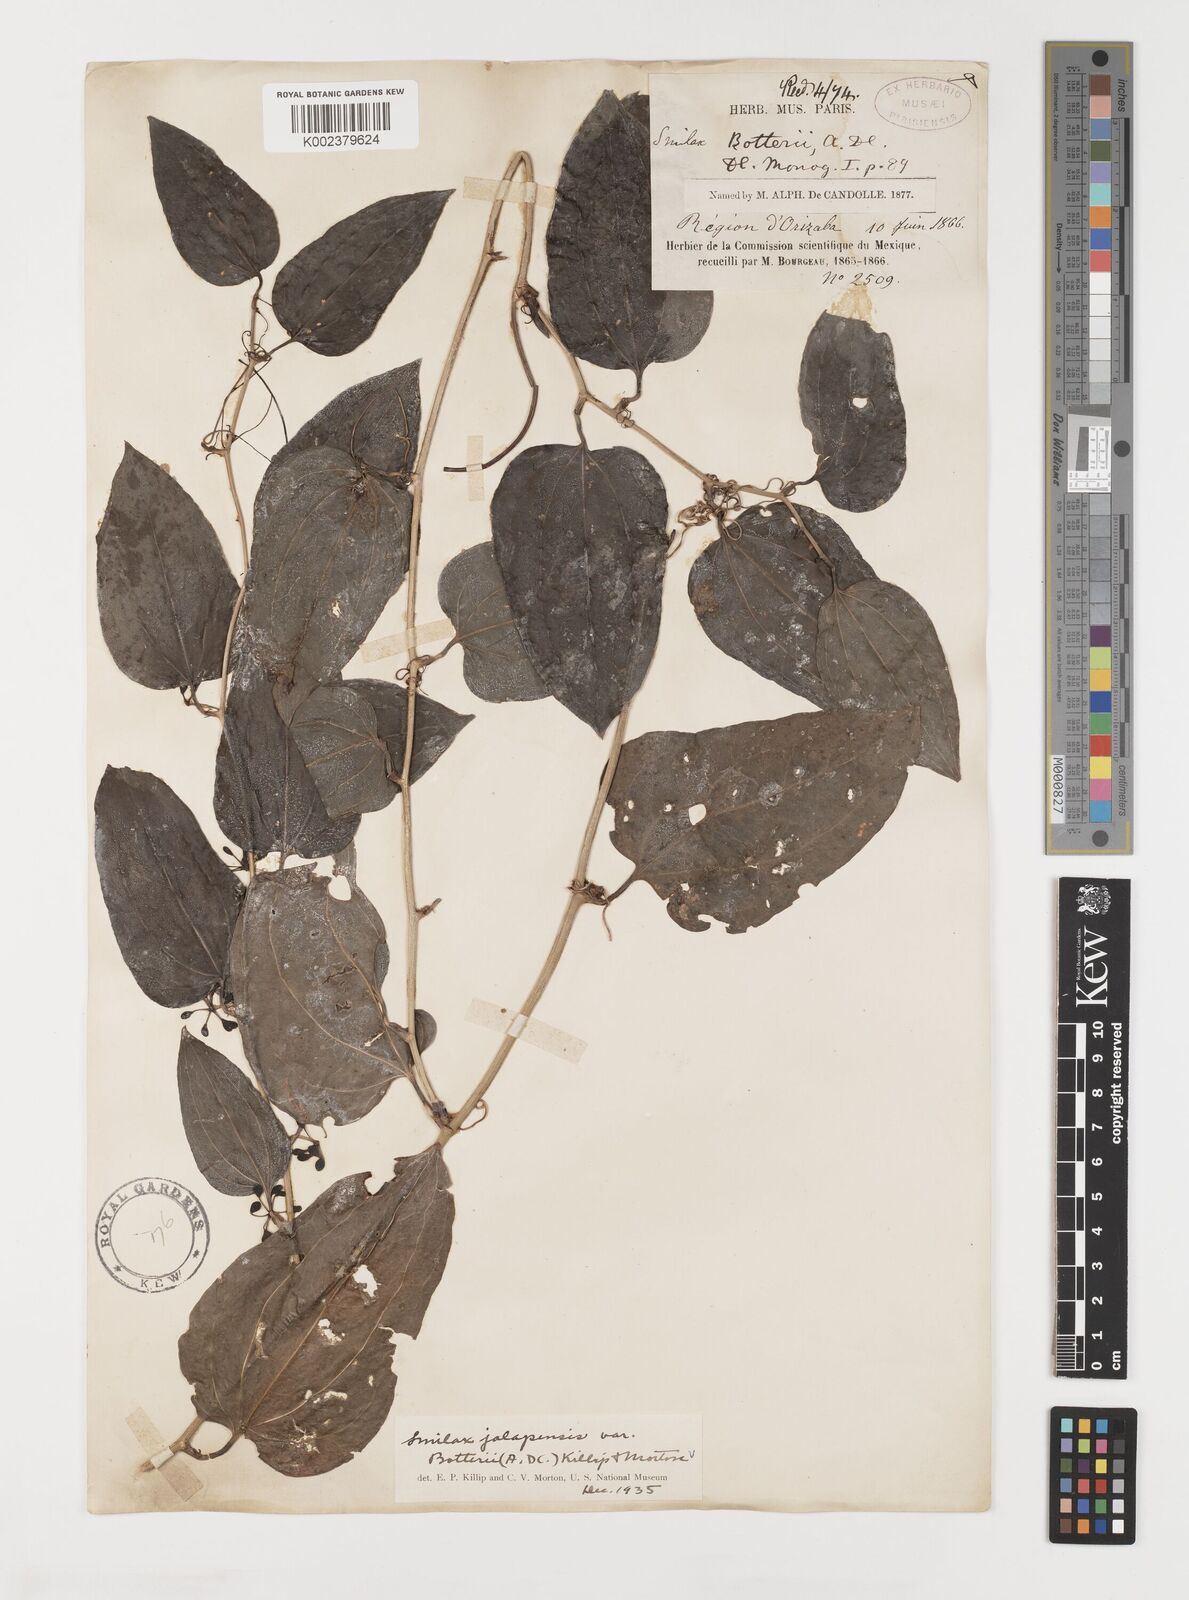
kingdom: Plantae
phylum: Tracheophyta
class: Liliopsida
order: Liliales
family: Smilacaceae
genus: Smilax
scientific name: Smilax moranensis
